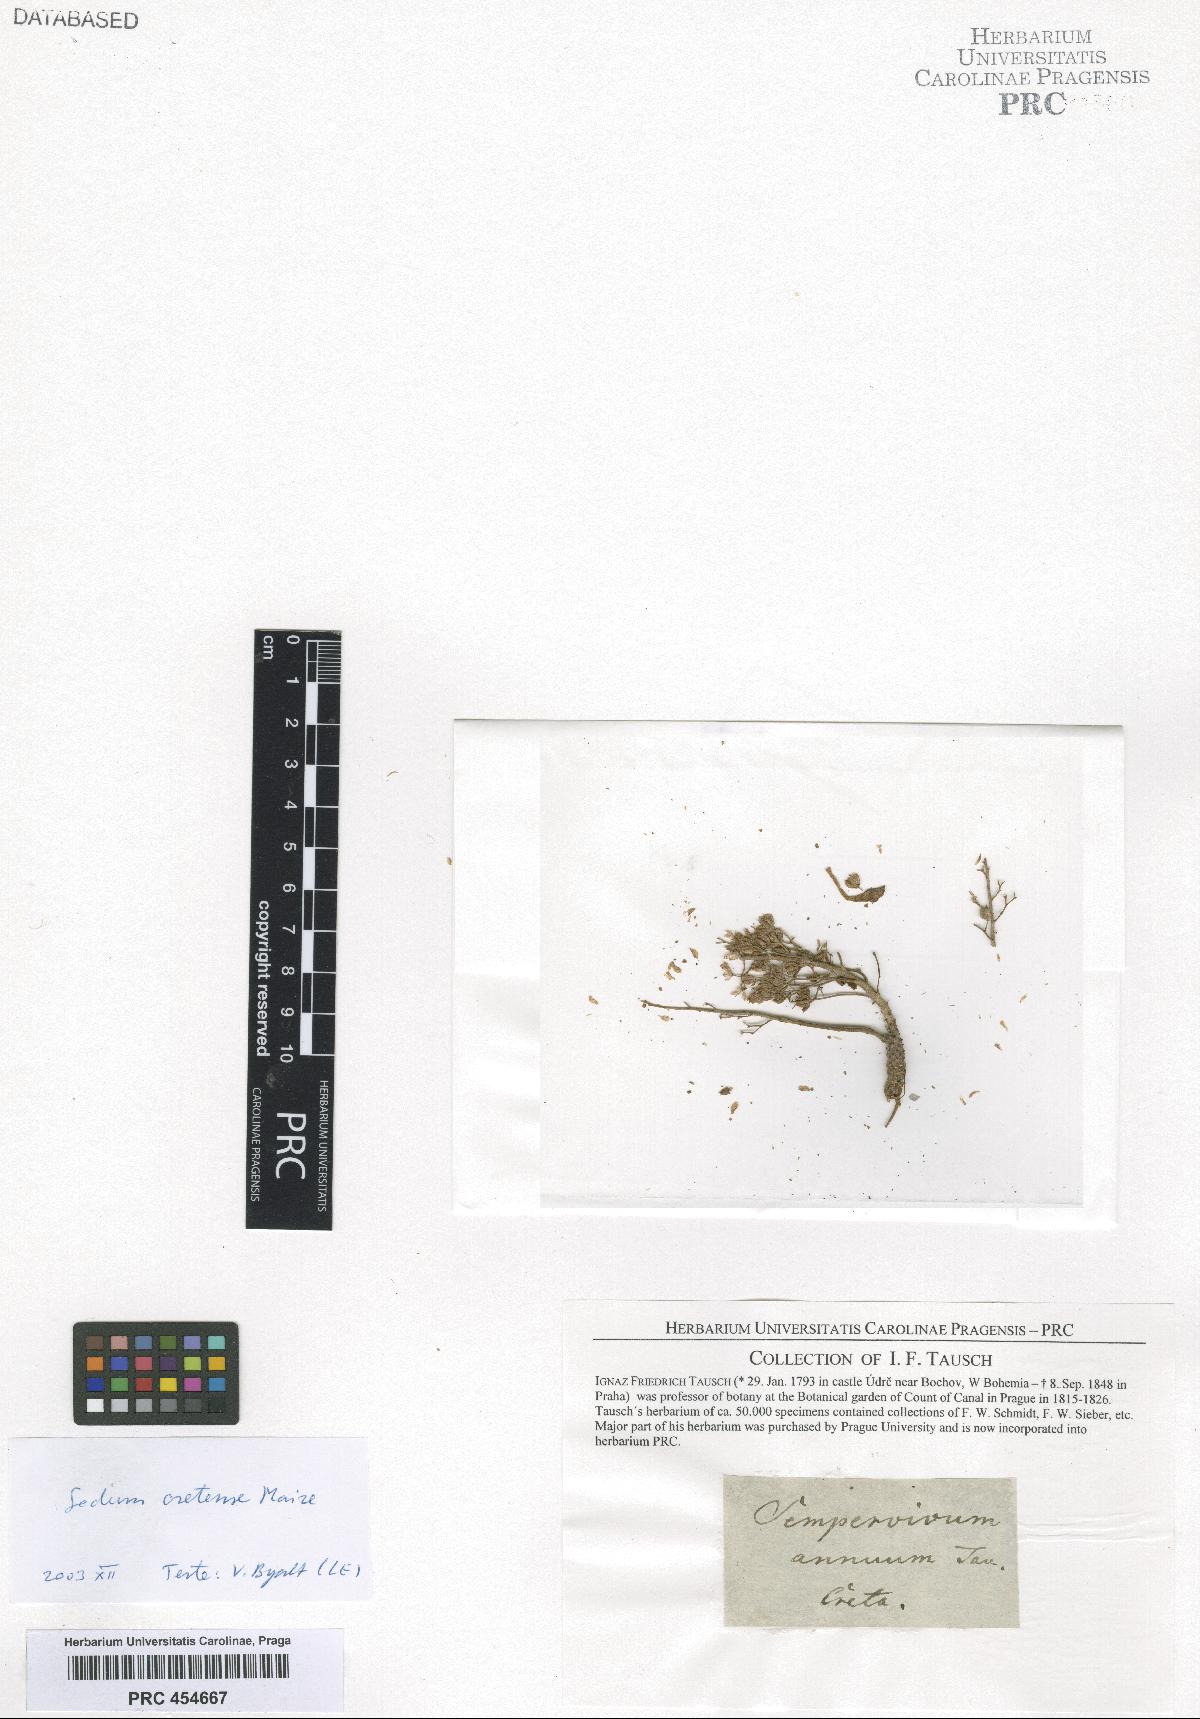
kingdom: Plantae
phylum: Tracheophyta
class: Magnoliopsida
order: Saxifragales
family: Crassulaceae
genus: Sedum
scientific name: Sedum creticum
